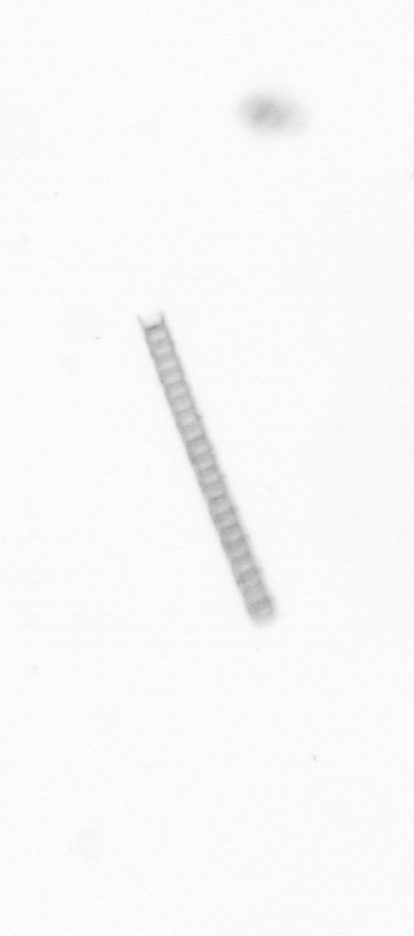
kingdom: Chromista
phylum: Ochrophyta
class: Bacillariophyceae
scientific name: Bacillariophyceae
